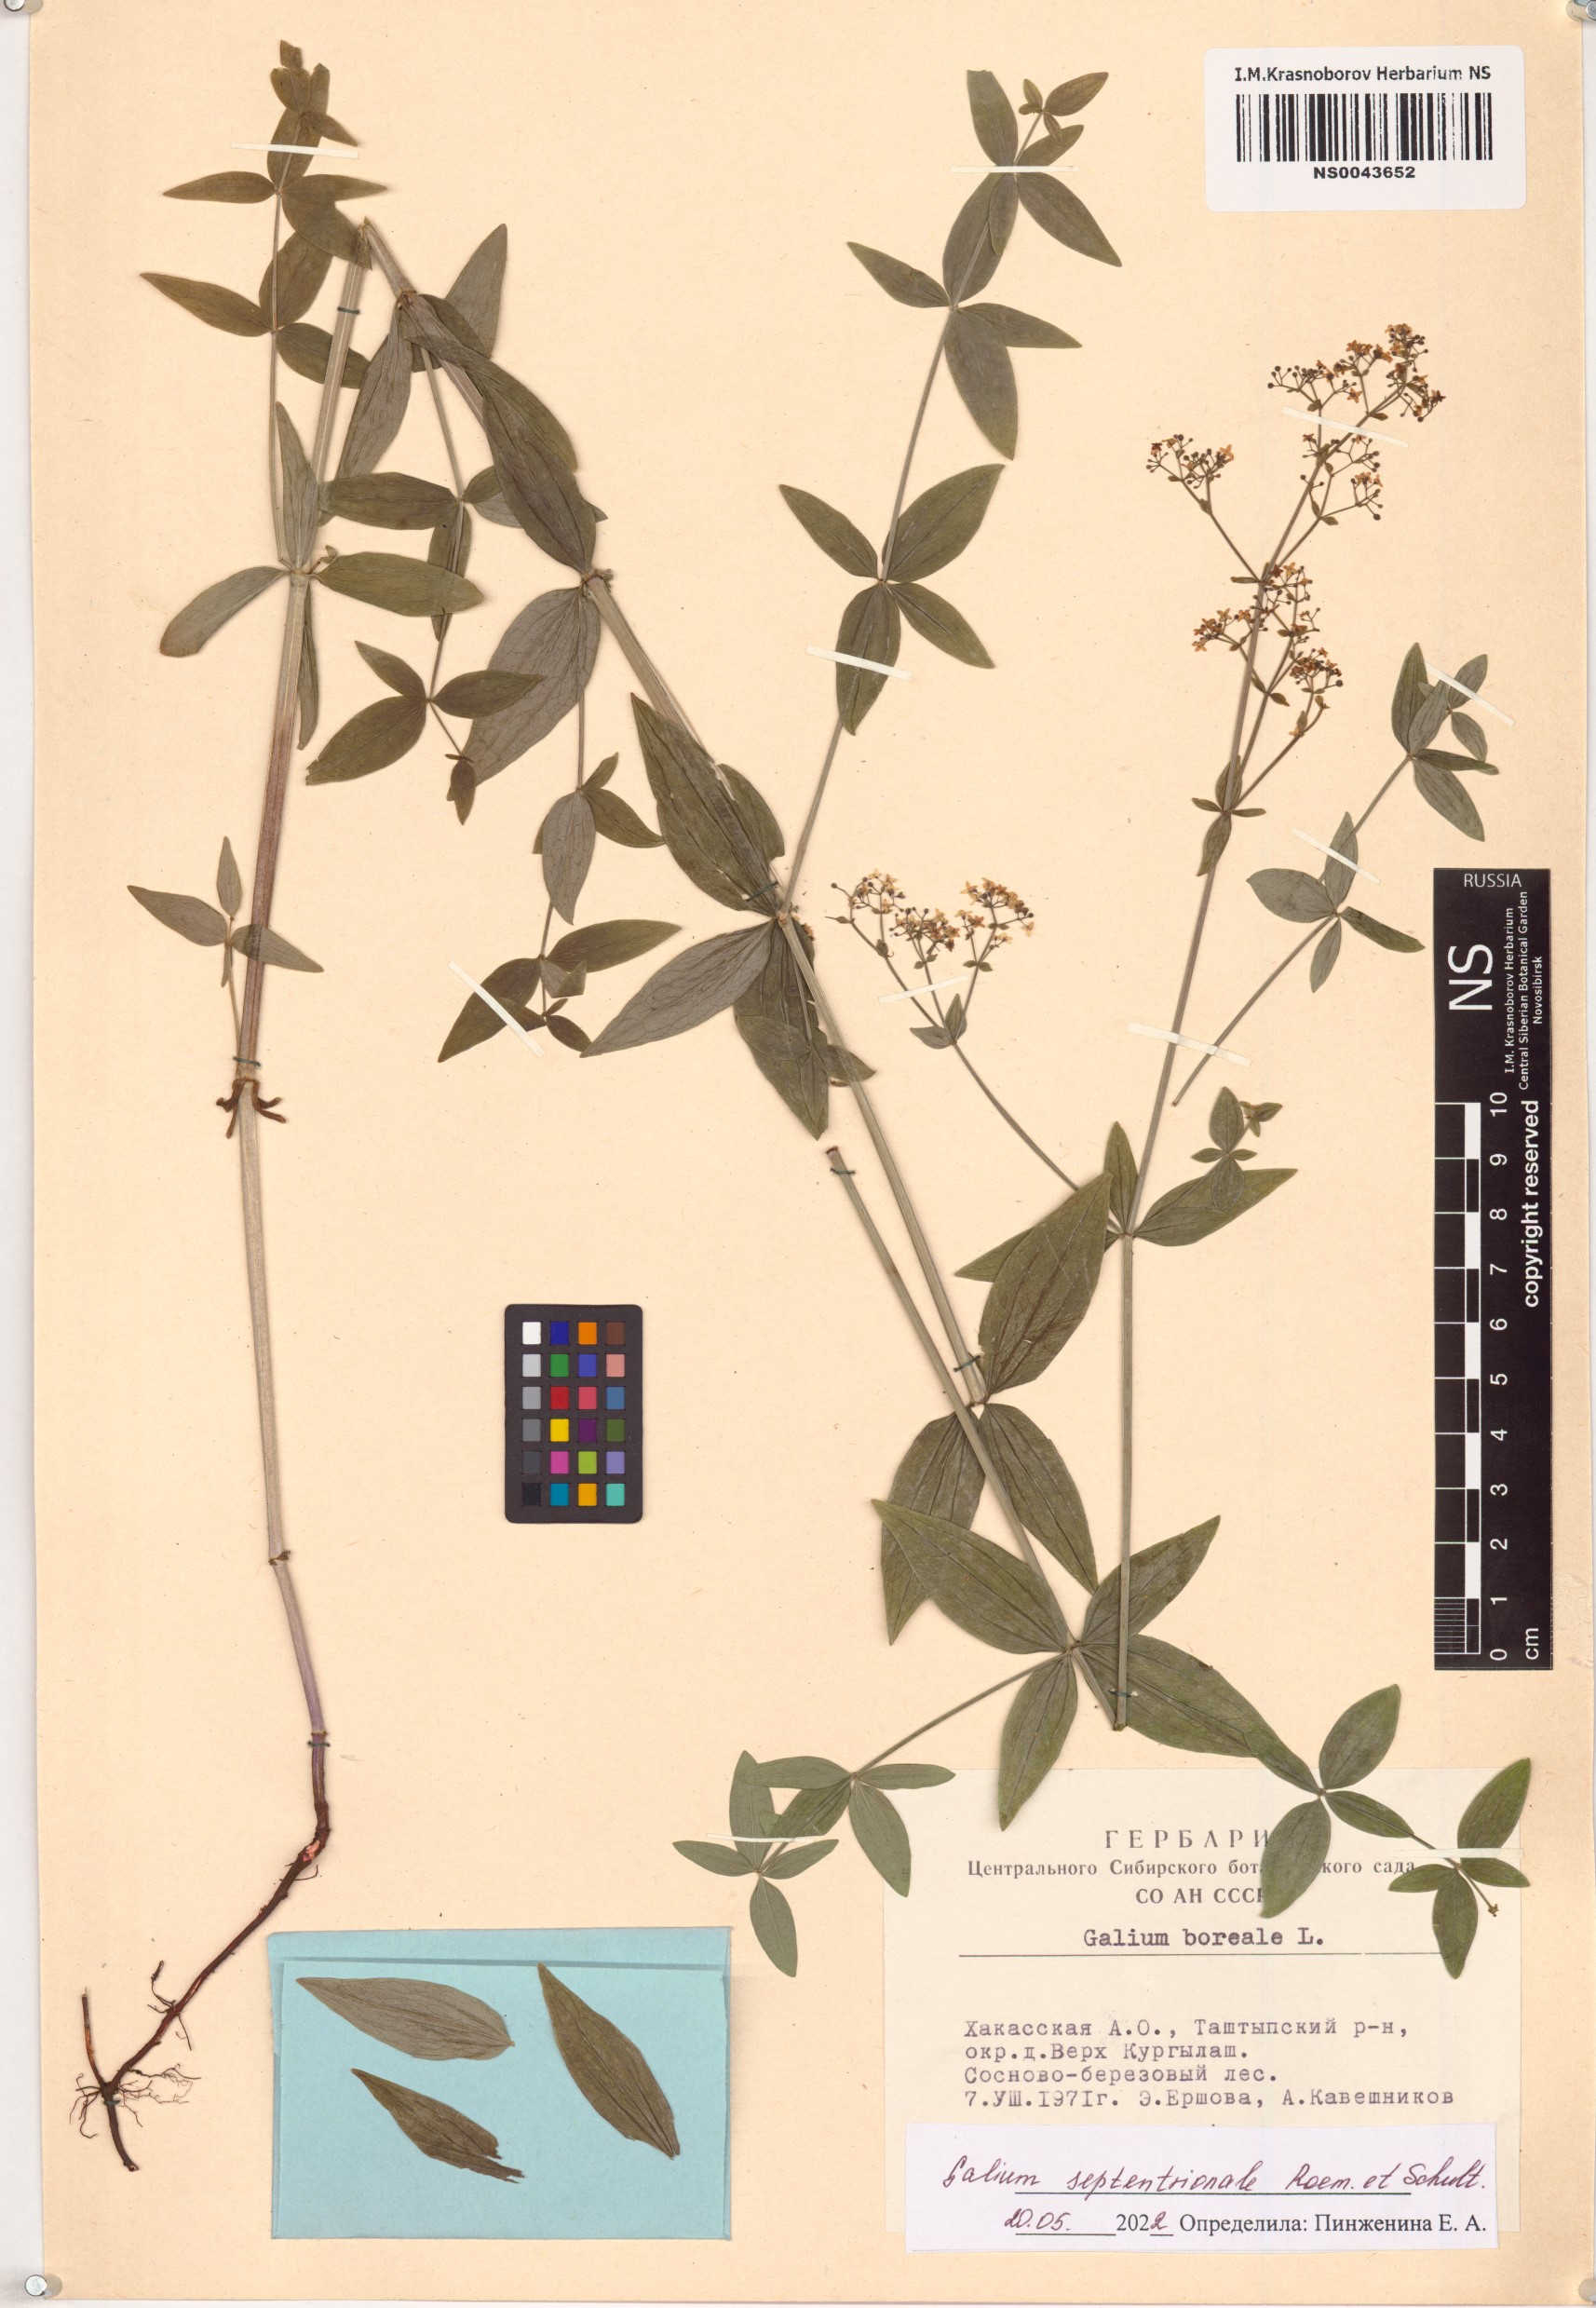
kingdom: Plantae
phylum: Tracheophyta
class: Magnoliopsida
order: Gentianales
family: Rubiaceae
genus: Galium
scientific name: Galium boreale
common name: Northern bedstraw
